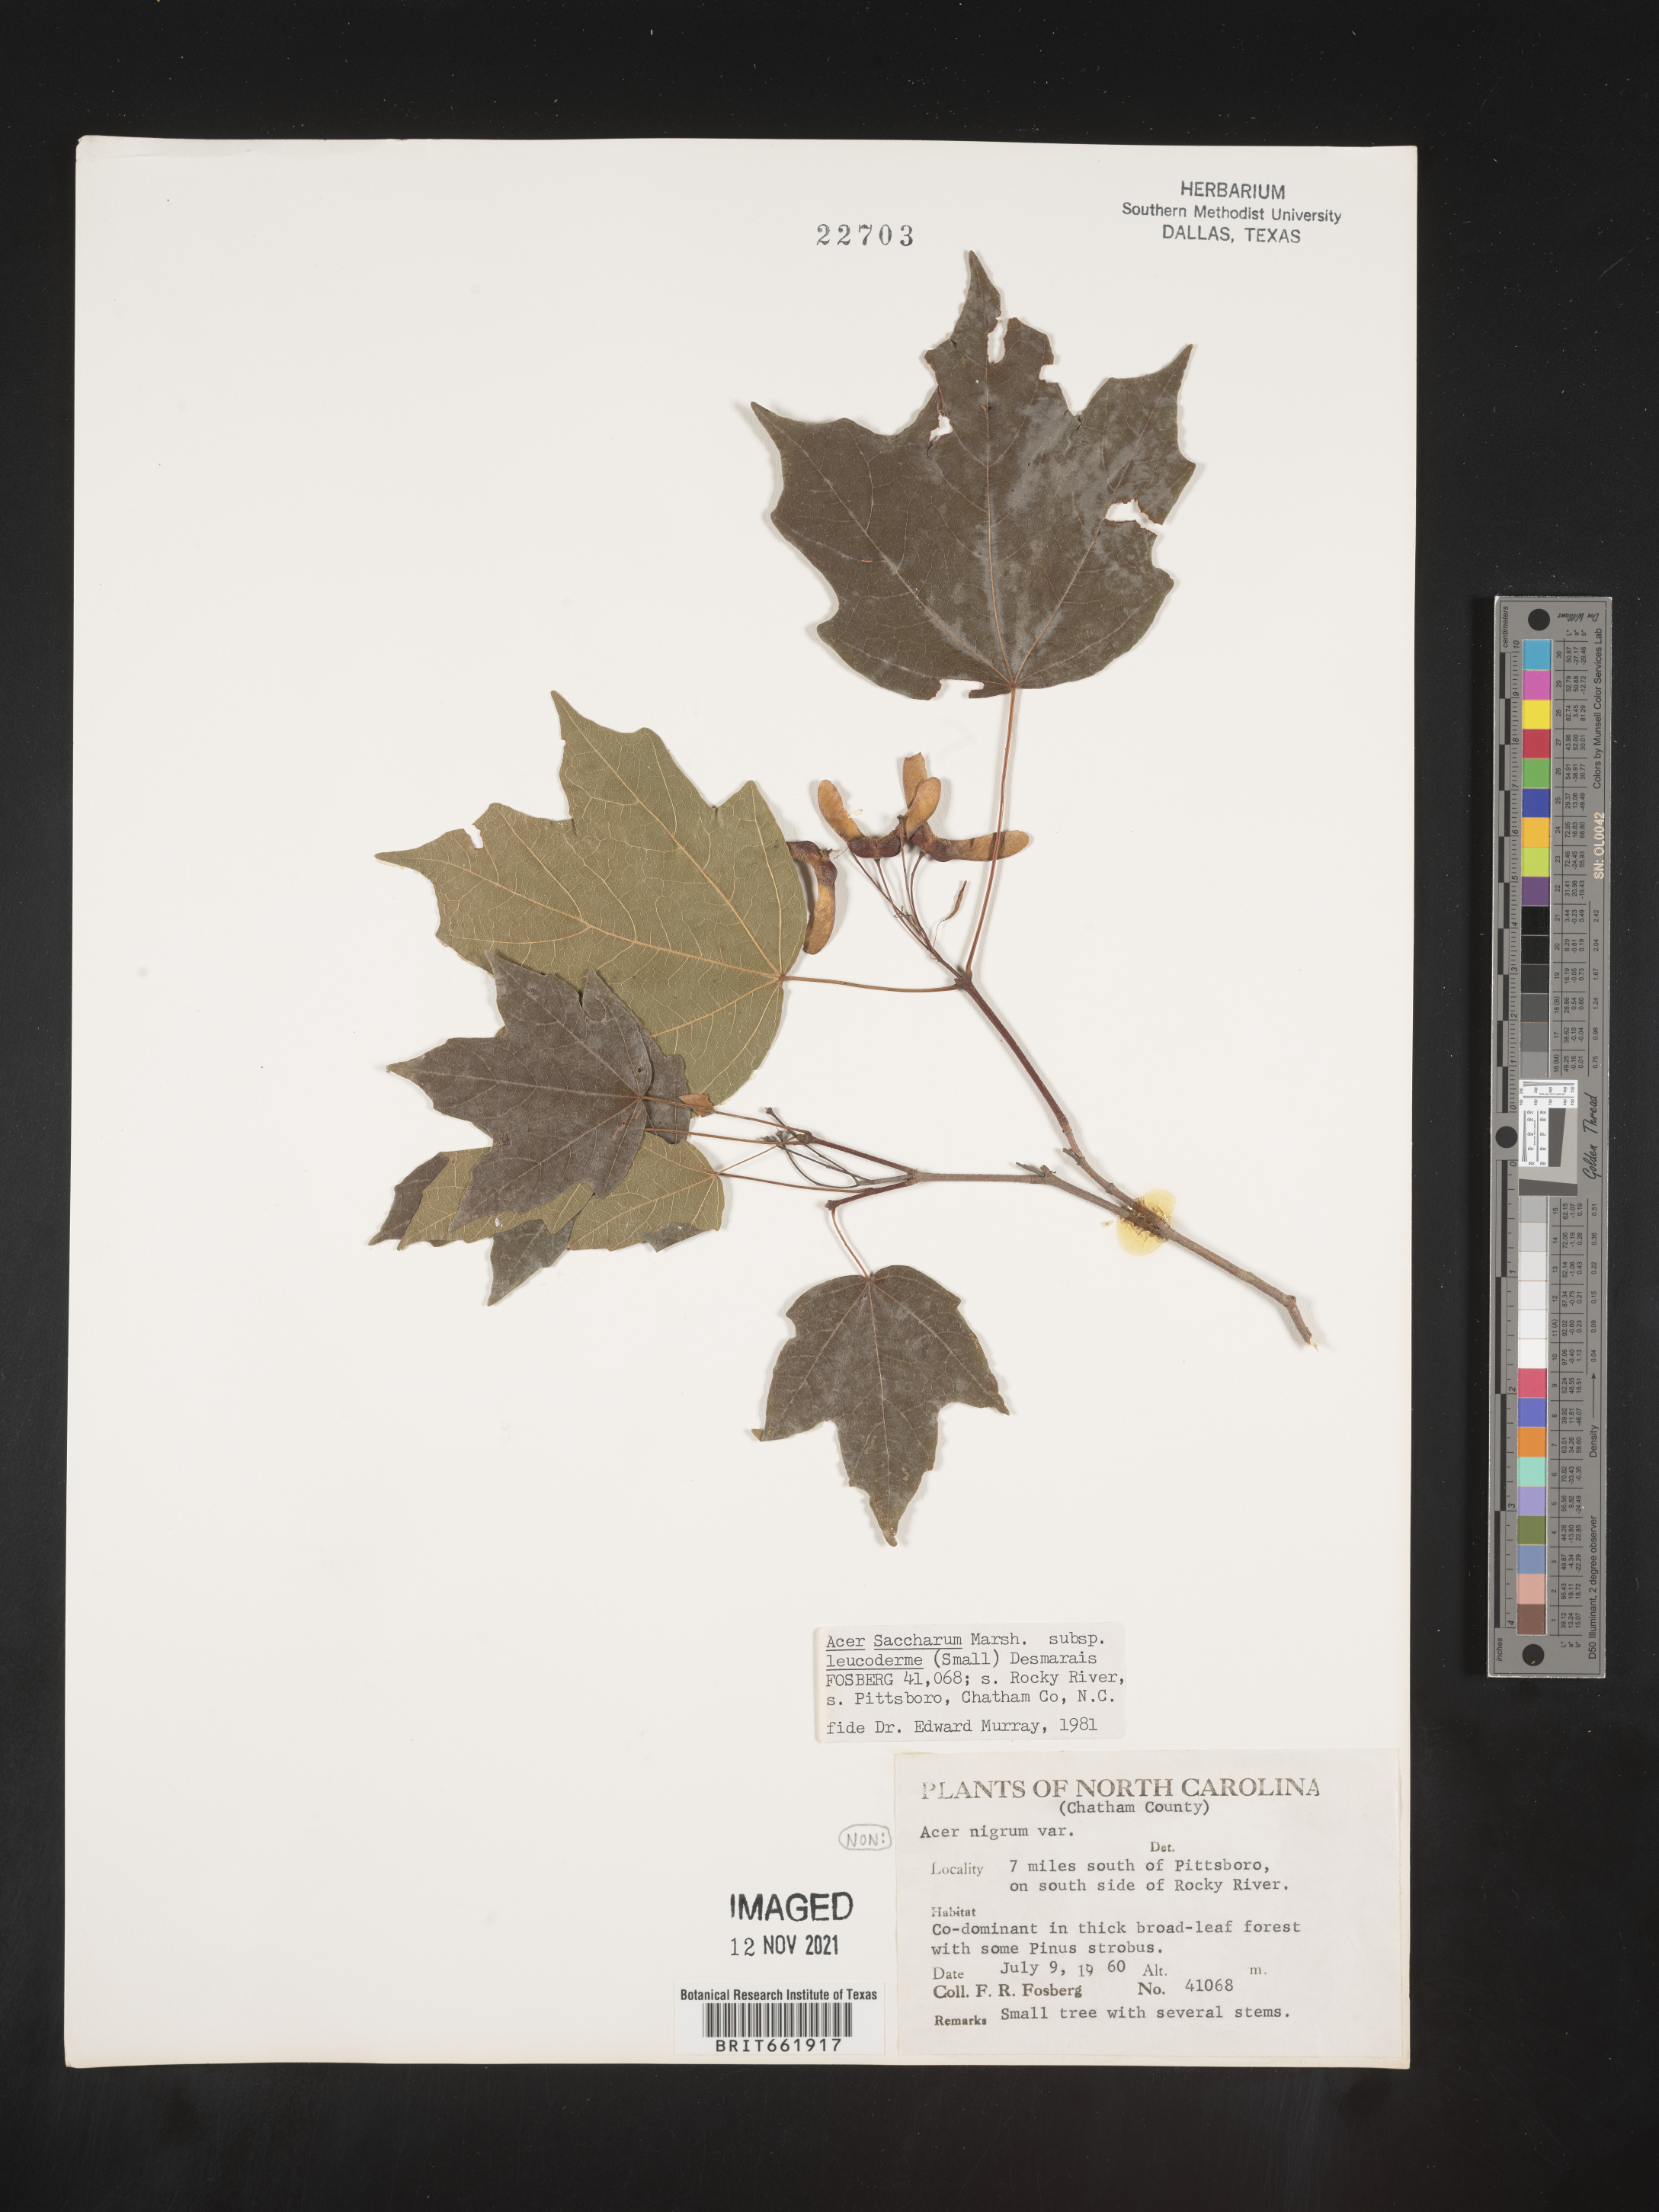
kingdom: Plantae
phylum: Tracheophyta
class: Magnoliopsida
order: Sapindales
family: Sapindaceae
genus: Acer
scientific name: Acer leucoderme
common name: Chalk maple
